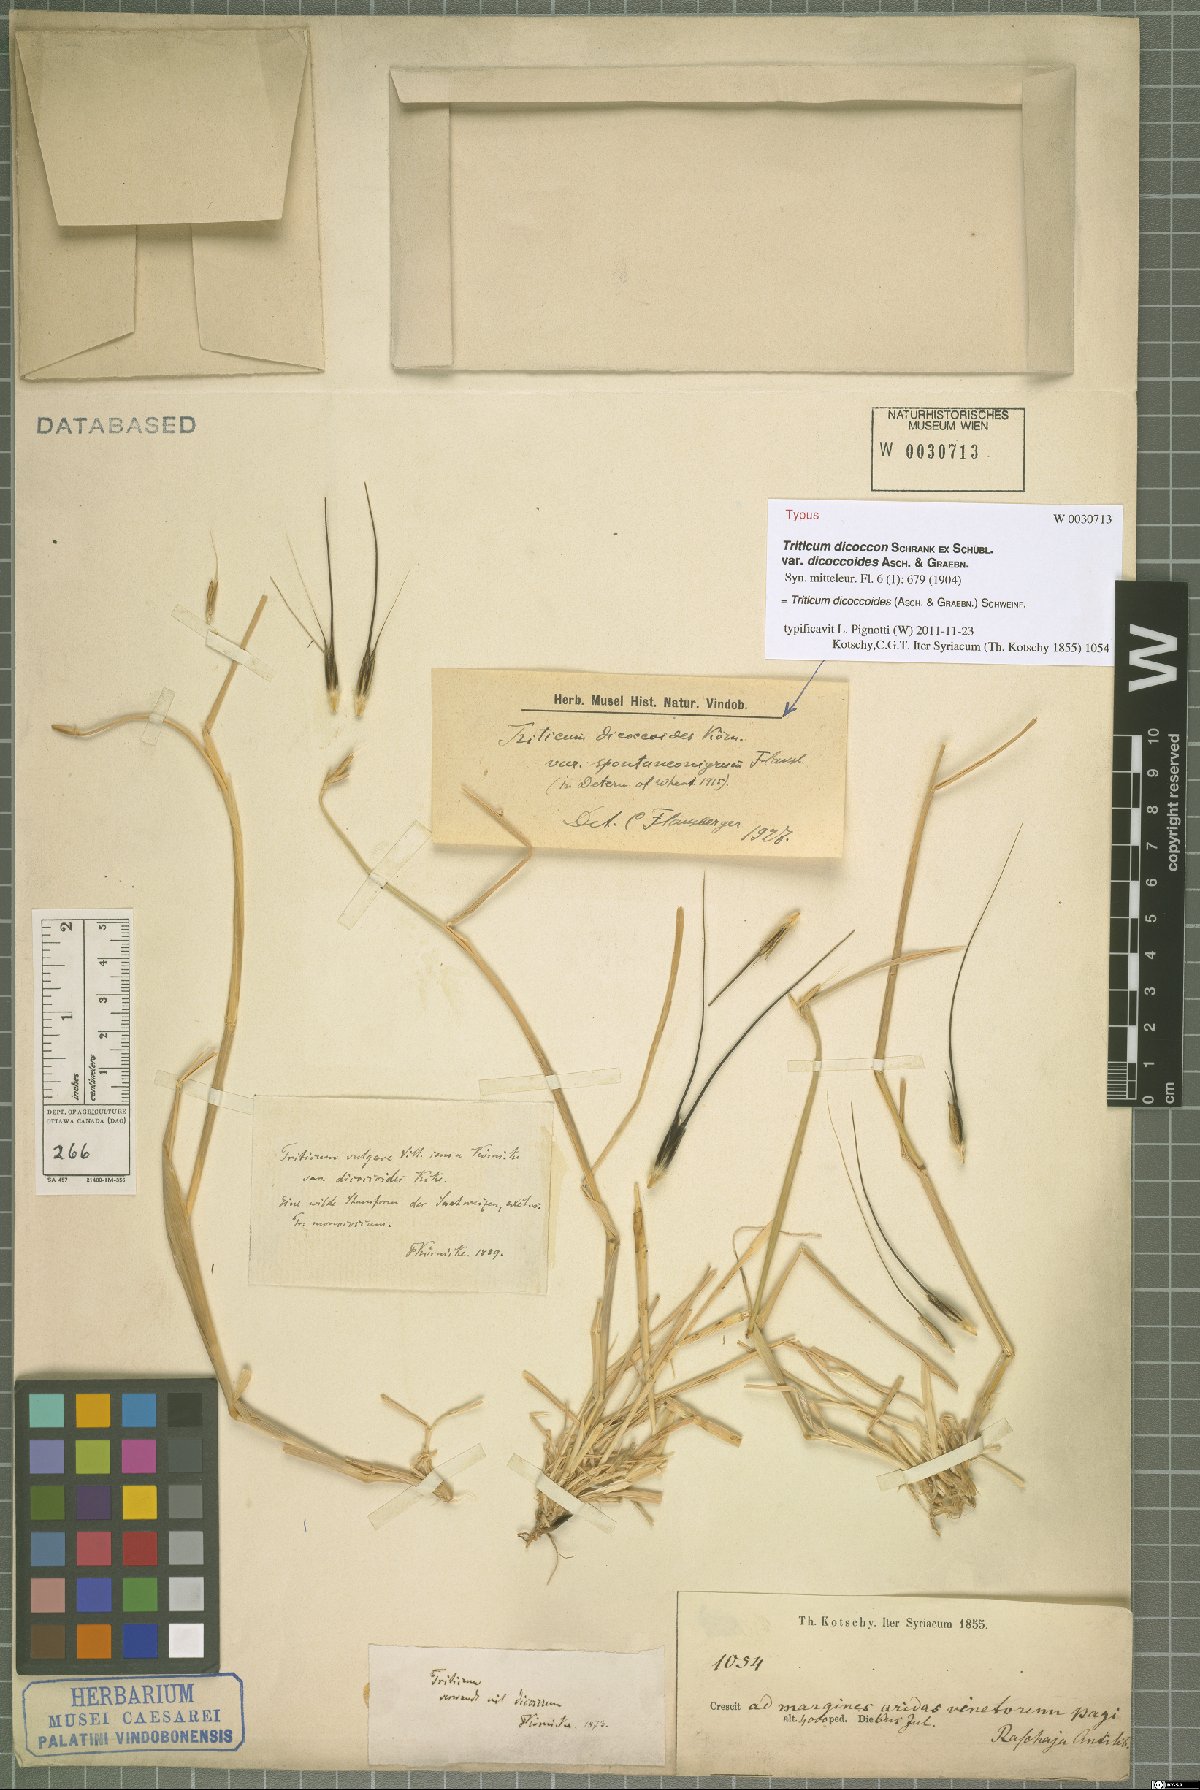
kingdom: Plantae
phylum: Tracheophyta
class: Liliopsida
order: Poales
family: Poaceae
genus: Triticum
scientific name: Triticum turgidum
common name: Rivet wheat
